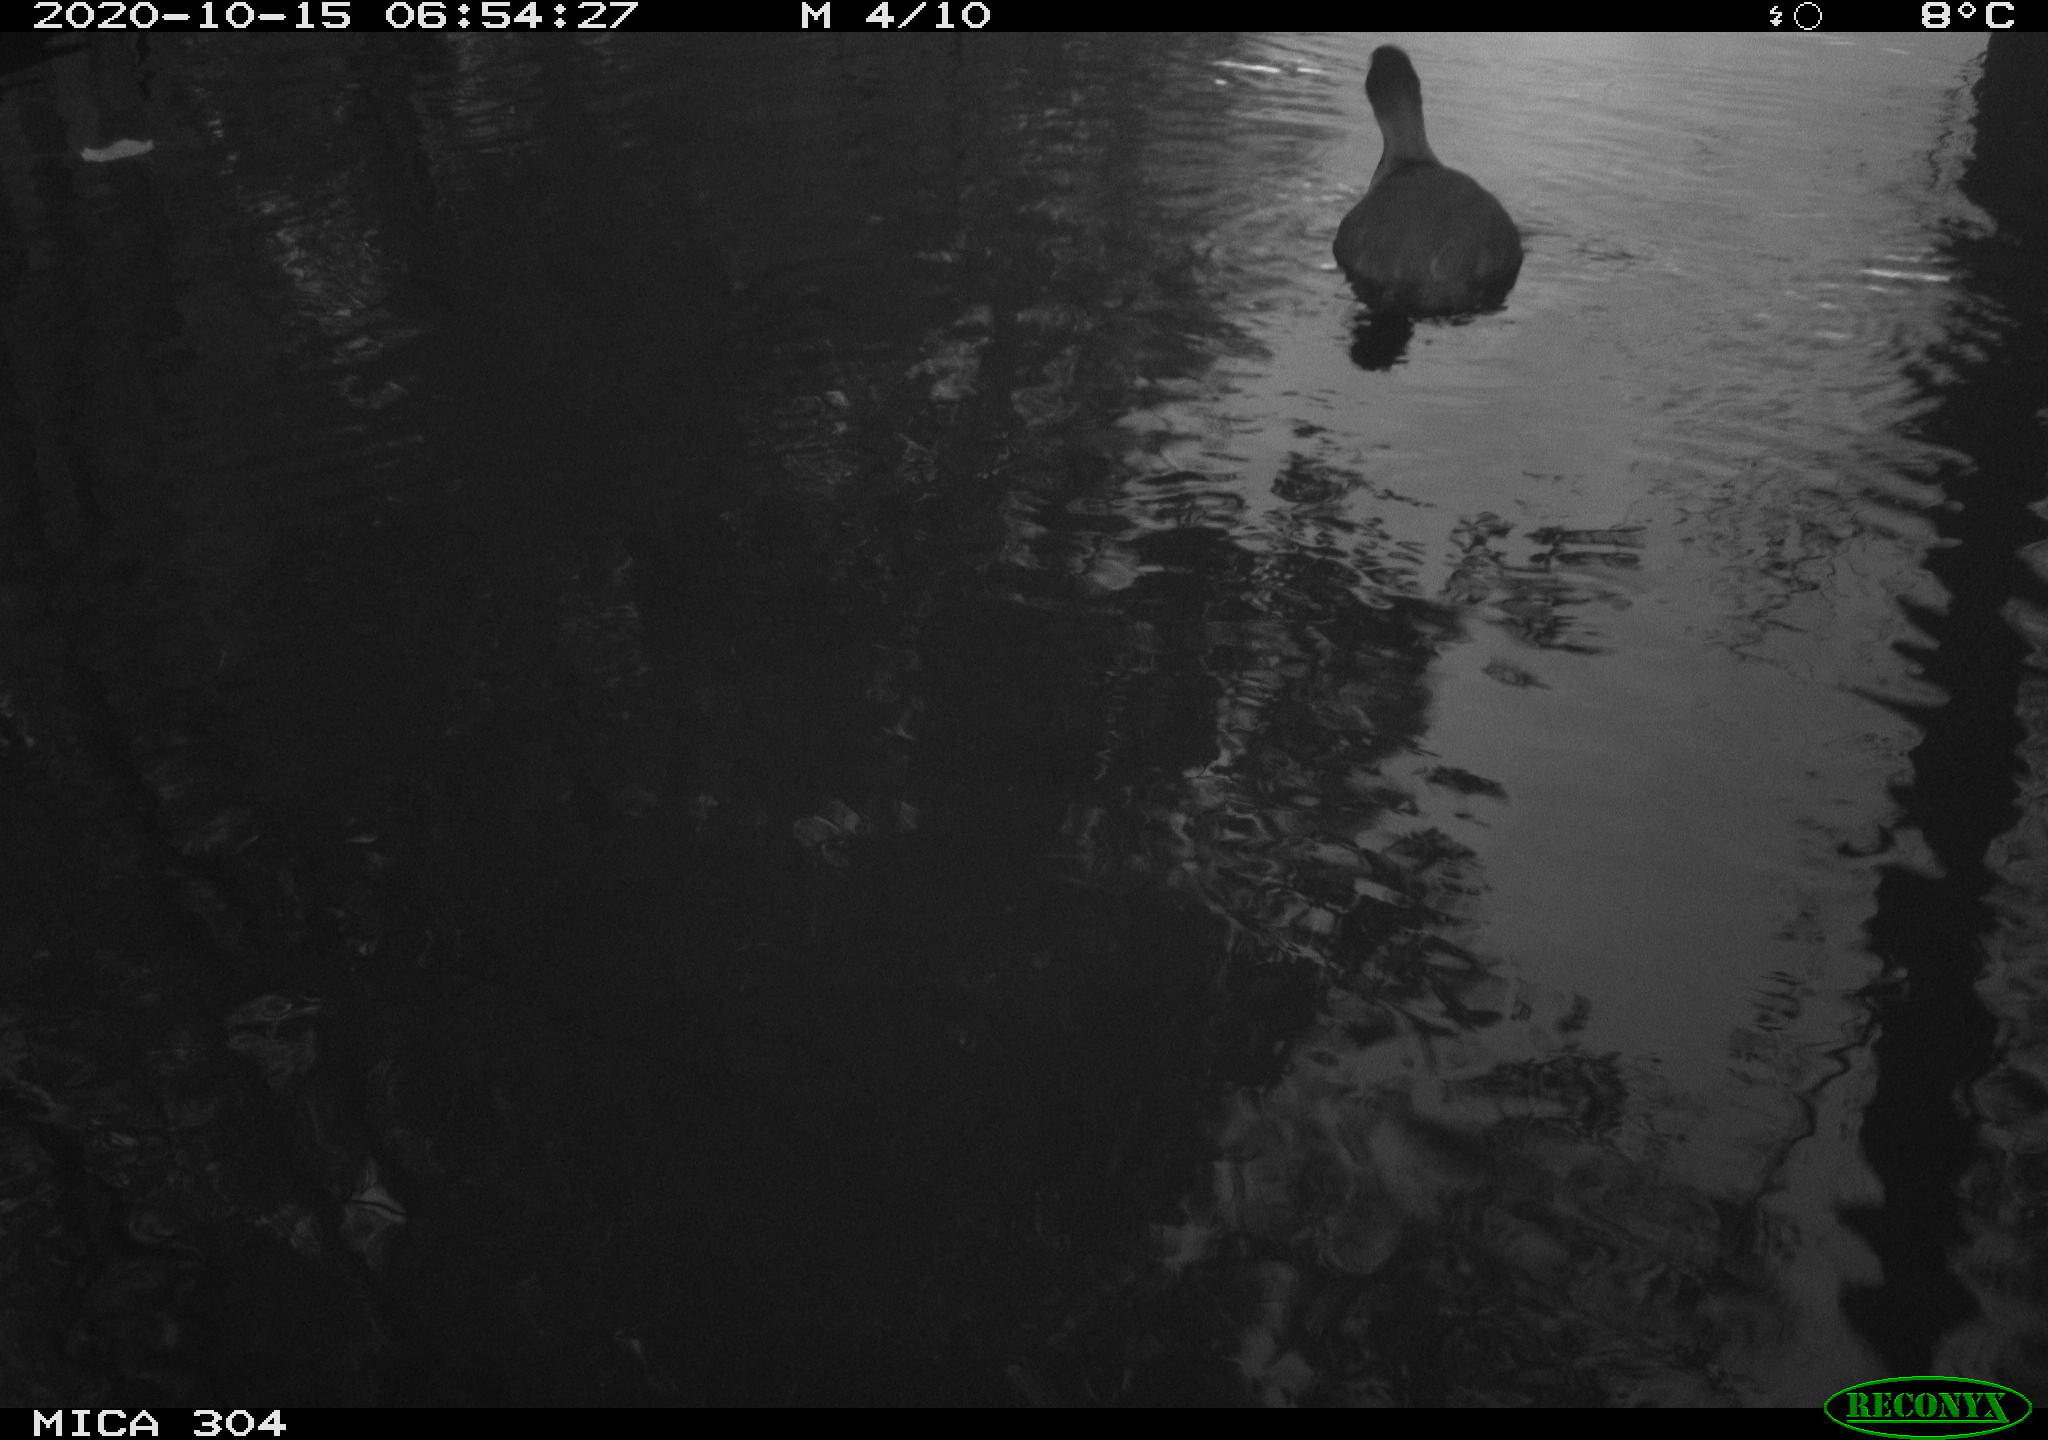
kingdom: Animalia
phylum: Chordata
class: Aves
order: Gruiformes
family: Rallidae
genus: Fulica
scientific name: Fulica atra
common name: Eurasian coot
